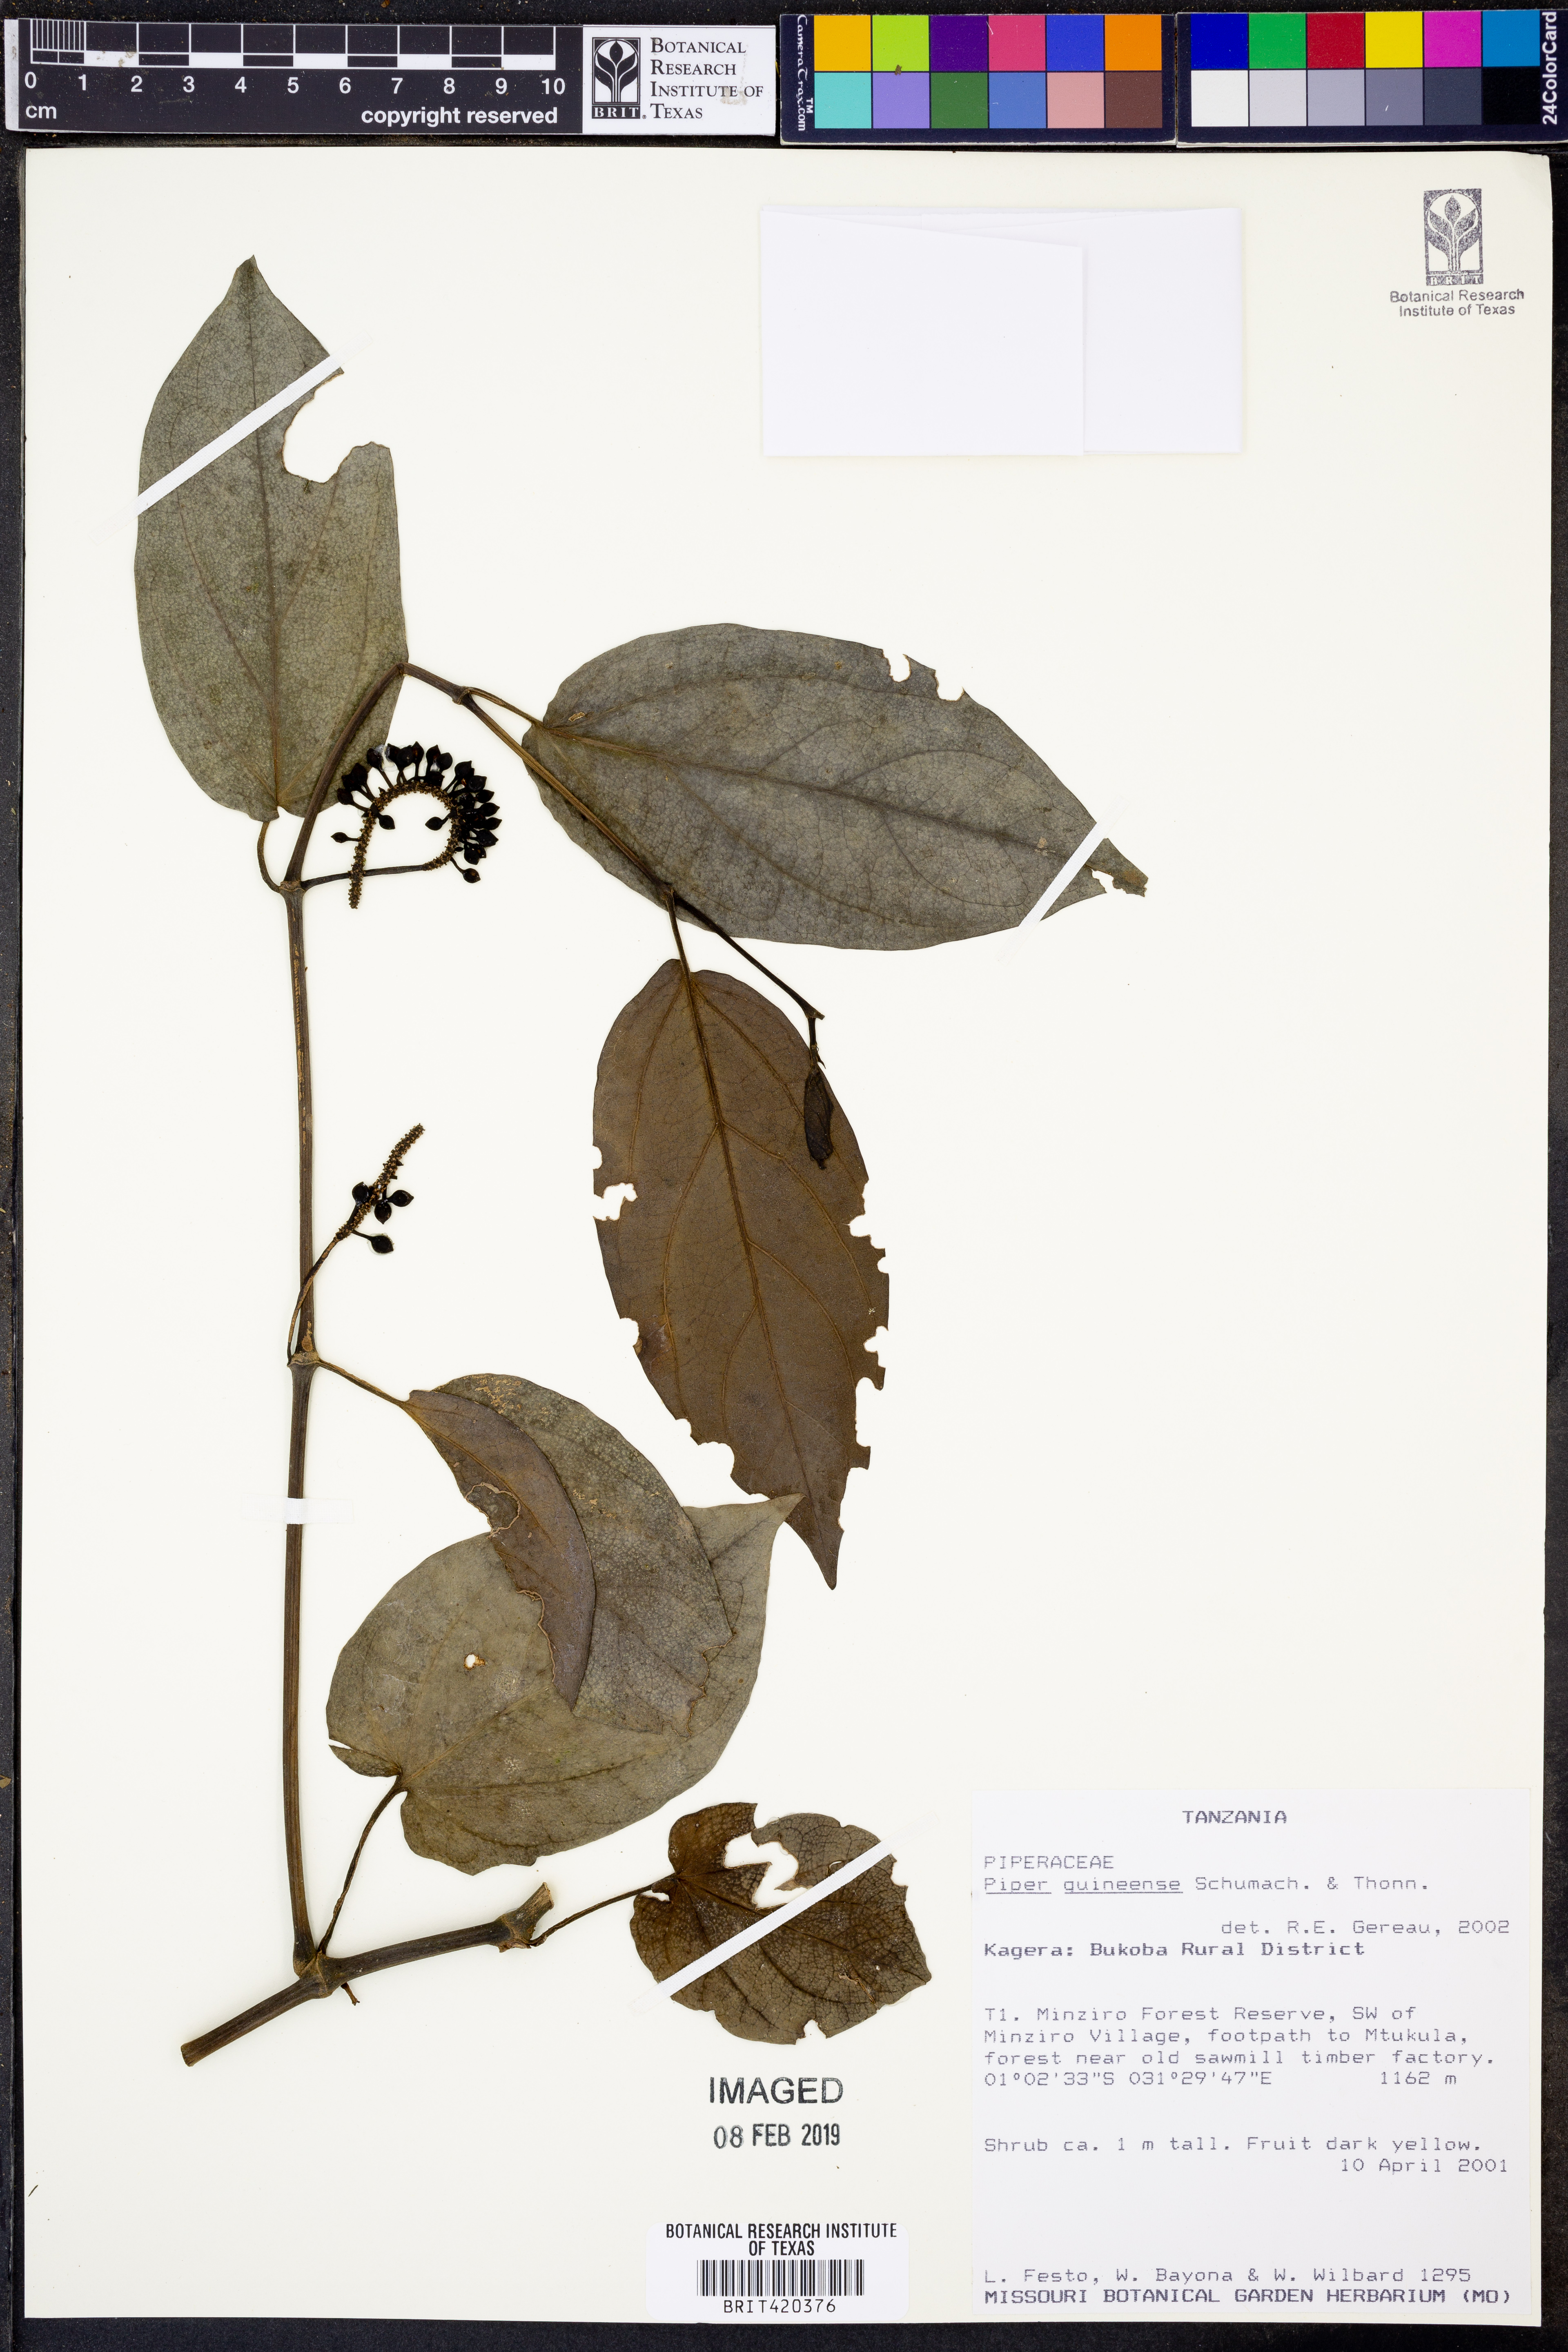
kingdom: Plantae
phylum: Tracheophyta
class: Magnoliopsida
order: Piperales
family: Piperaceae
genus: Piper
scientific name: Piper guineense
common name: Benin pepper
